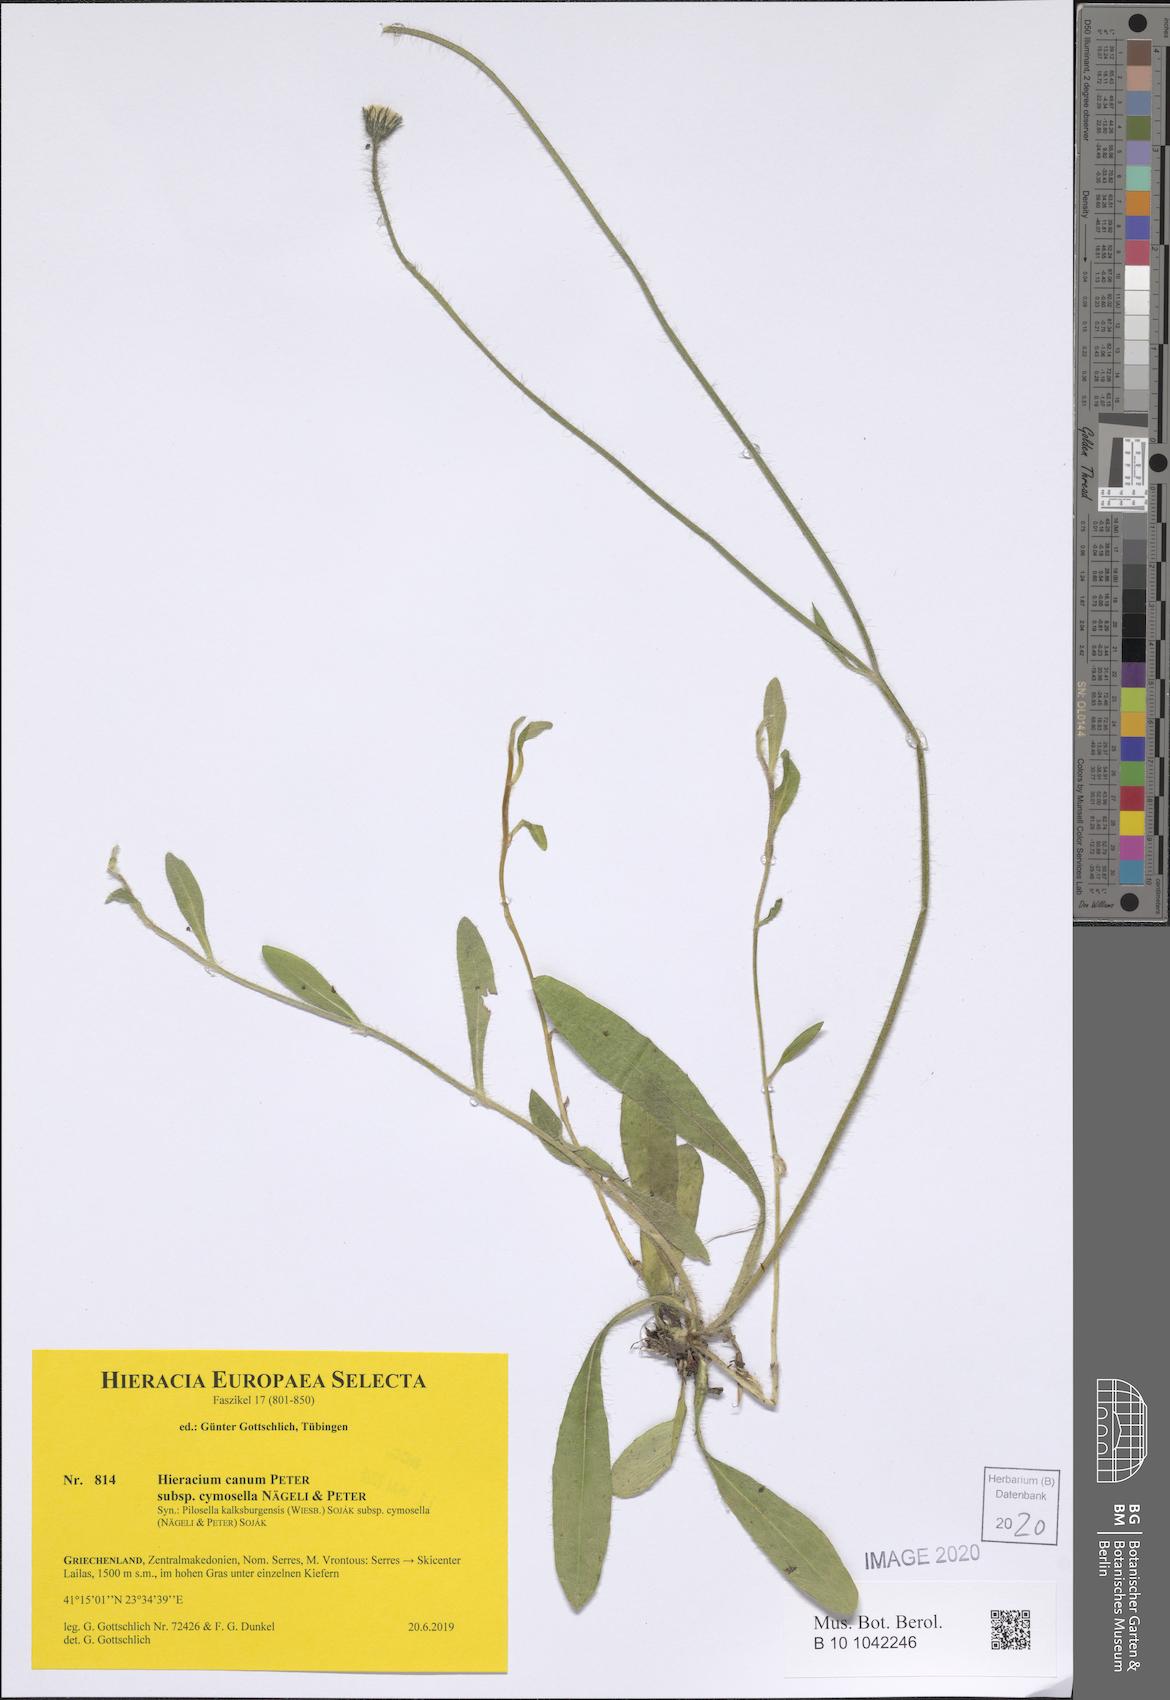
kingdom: Plantae
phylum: Tracheophyta
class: Magnoliopsida
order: Asterales
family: Asteraceae
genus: Pilosella
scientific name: Pilosella cana
